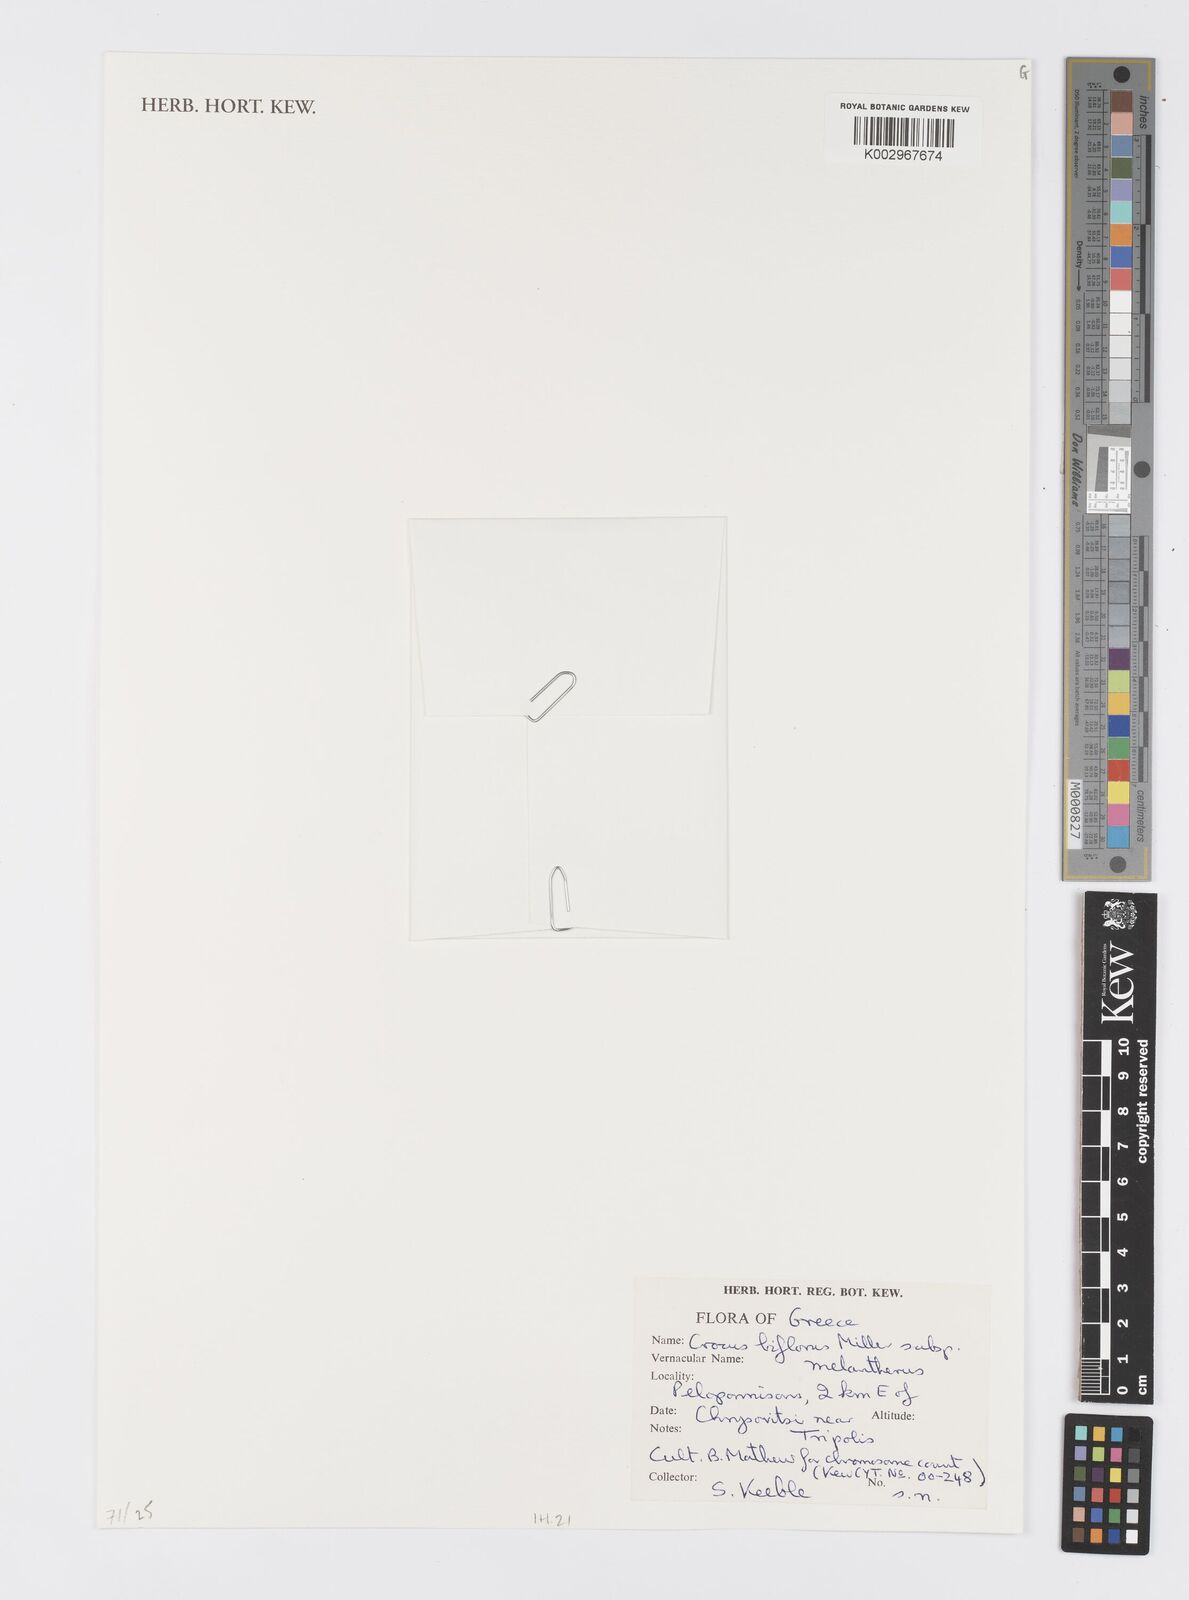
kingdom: Plantae
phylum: Tracheophyta
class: Liliopsida
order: Asparagales
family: Iridaceae
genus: Crocus
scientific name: Crocus melantherus
